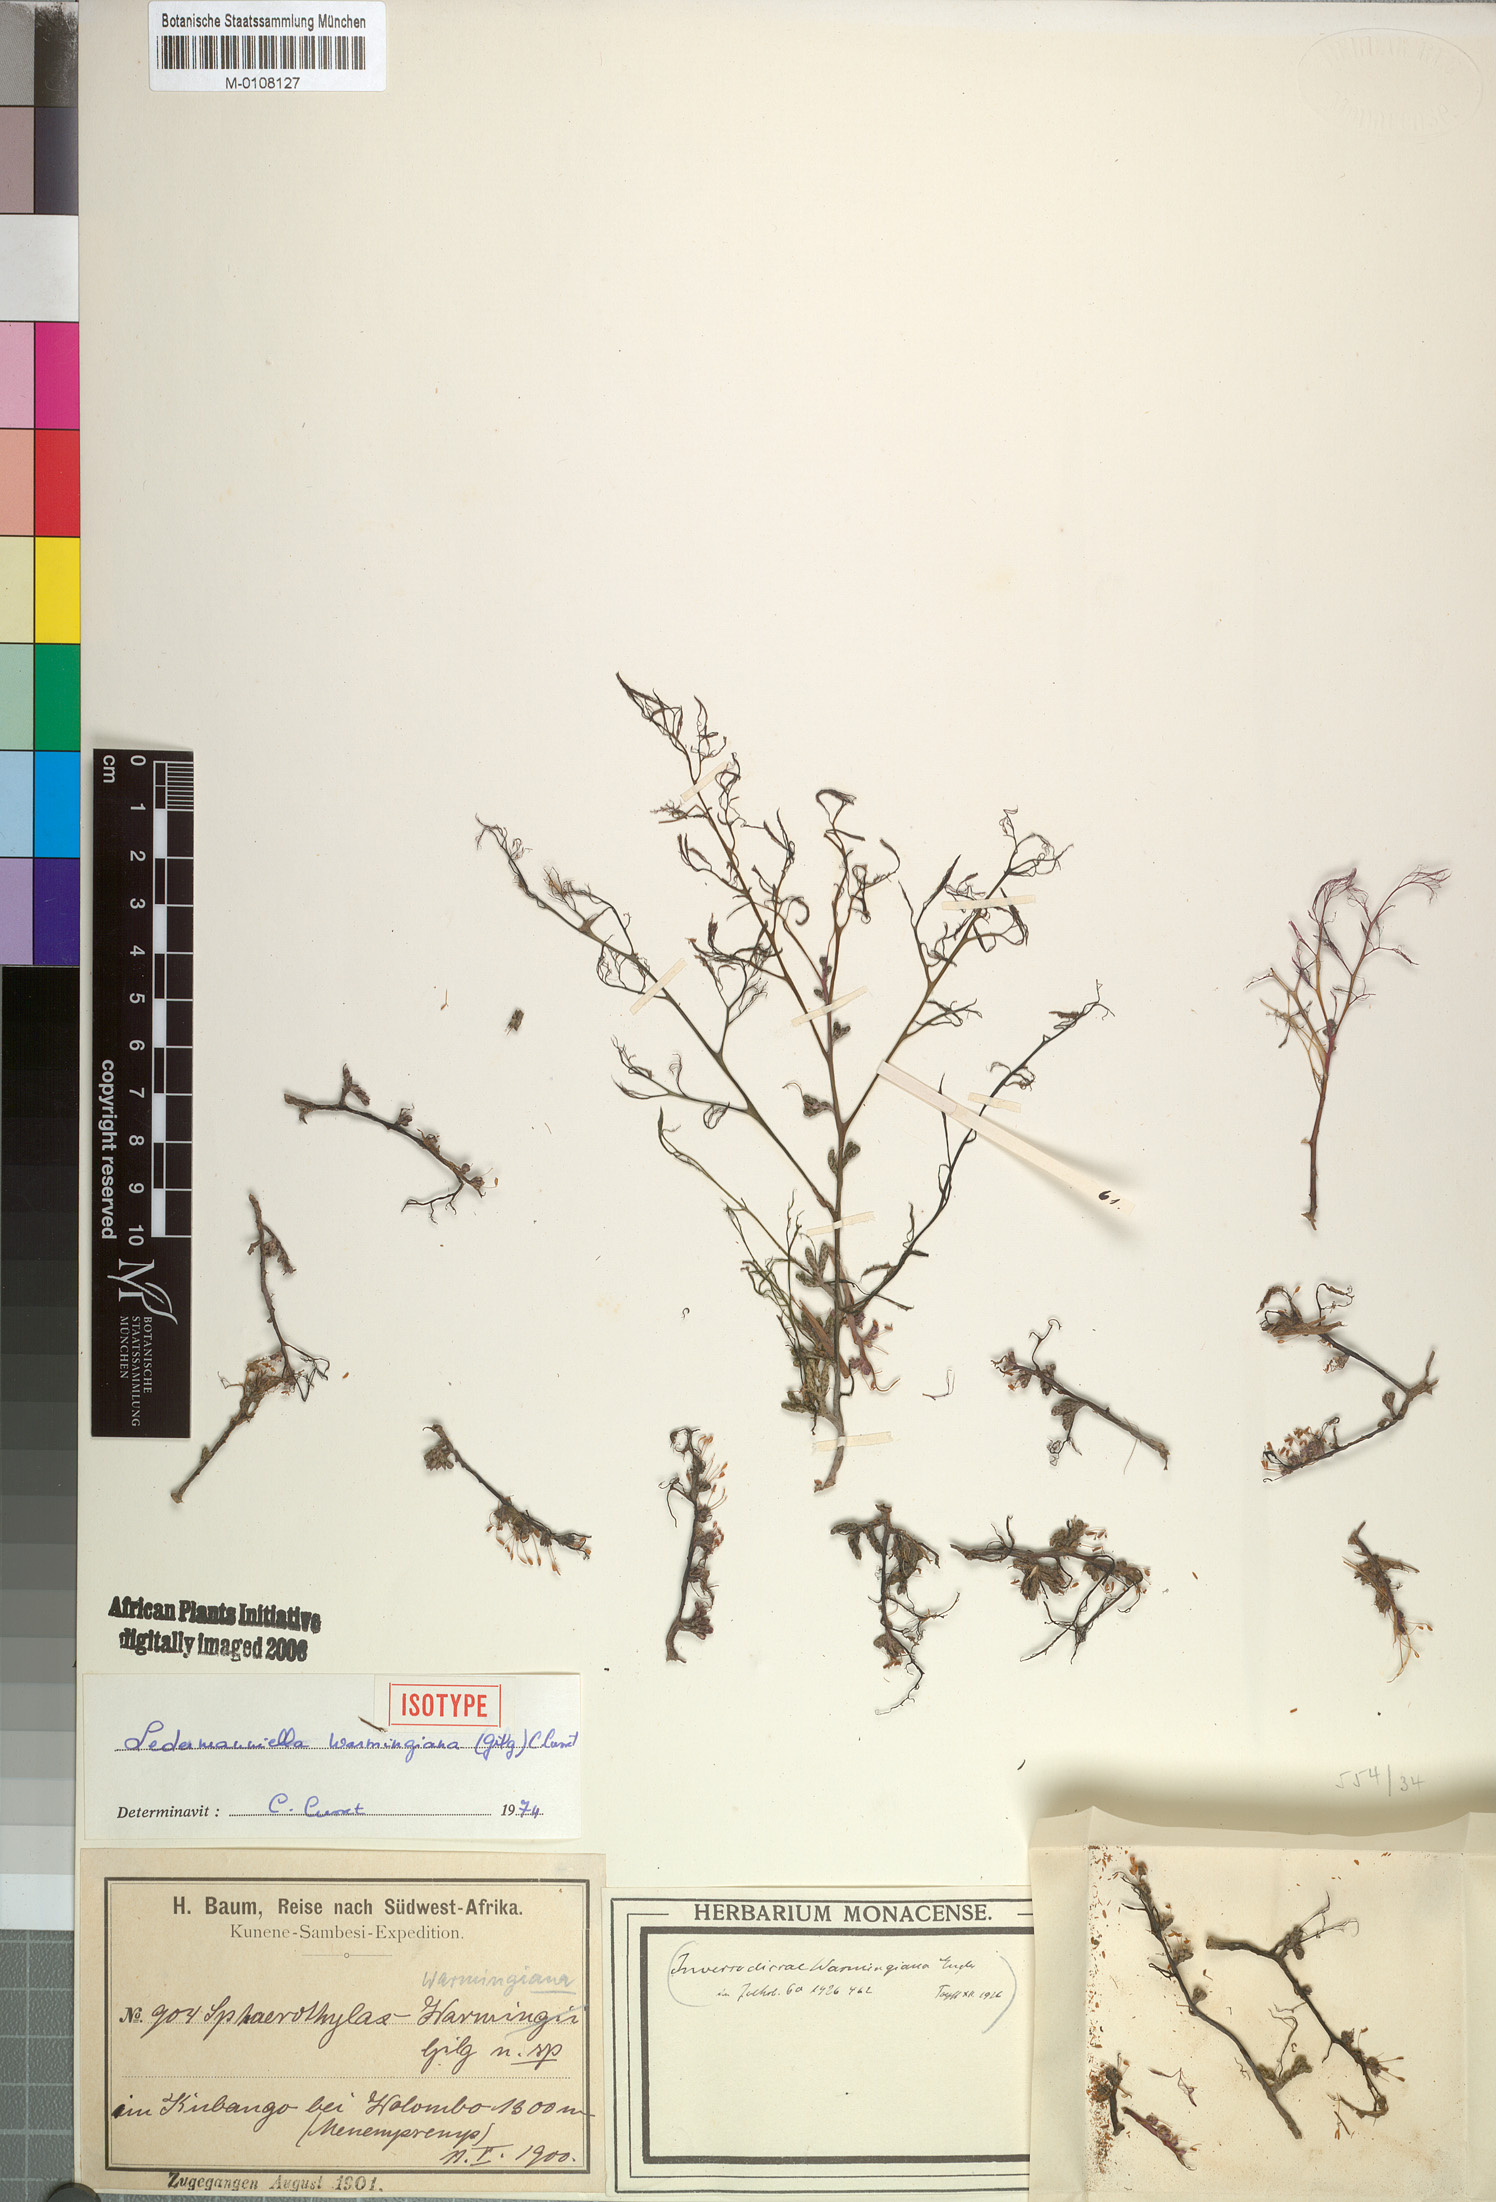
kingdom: Plantae
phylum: Tracheophyta
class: Magnoliopsida
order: Malpighiales
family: Podostemaceae
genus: Inversodicraea
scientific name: Inversodicraea warmingiana
